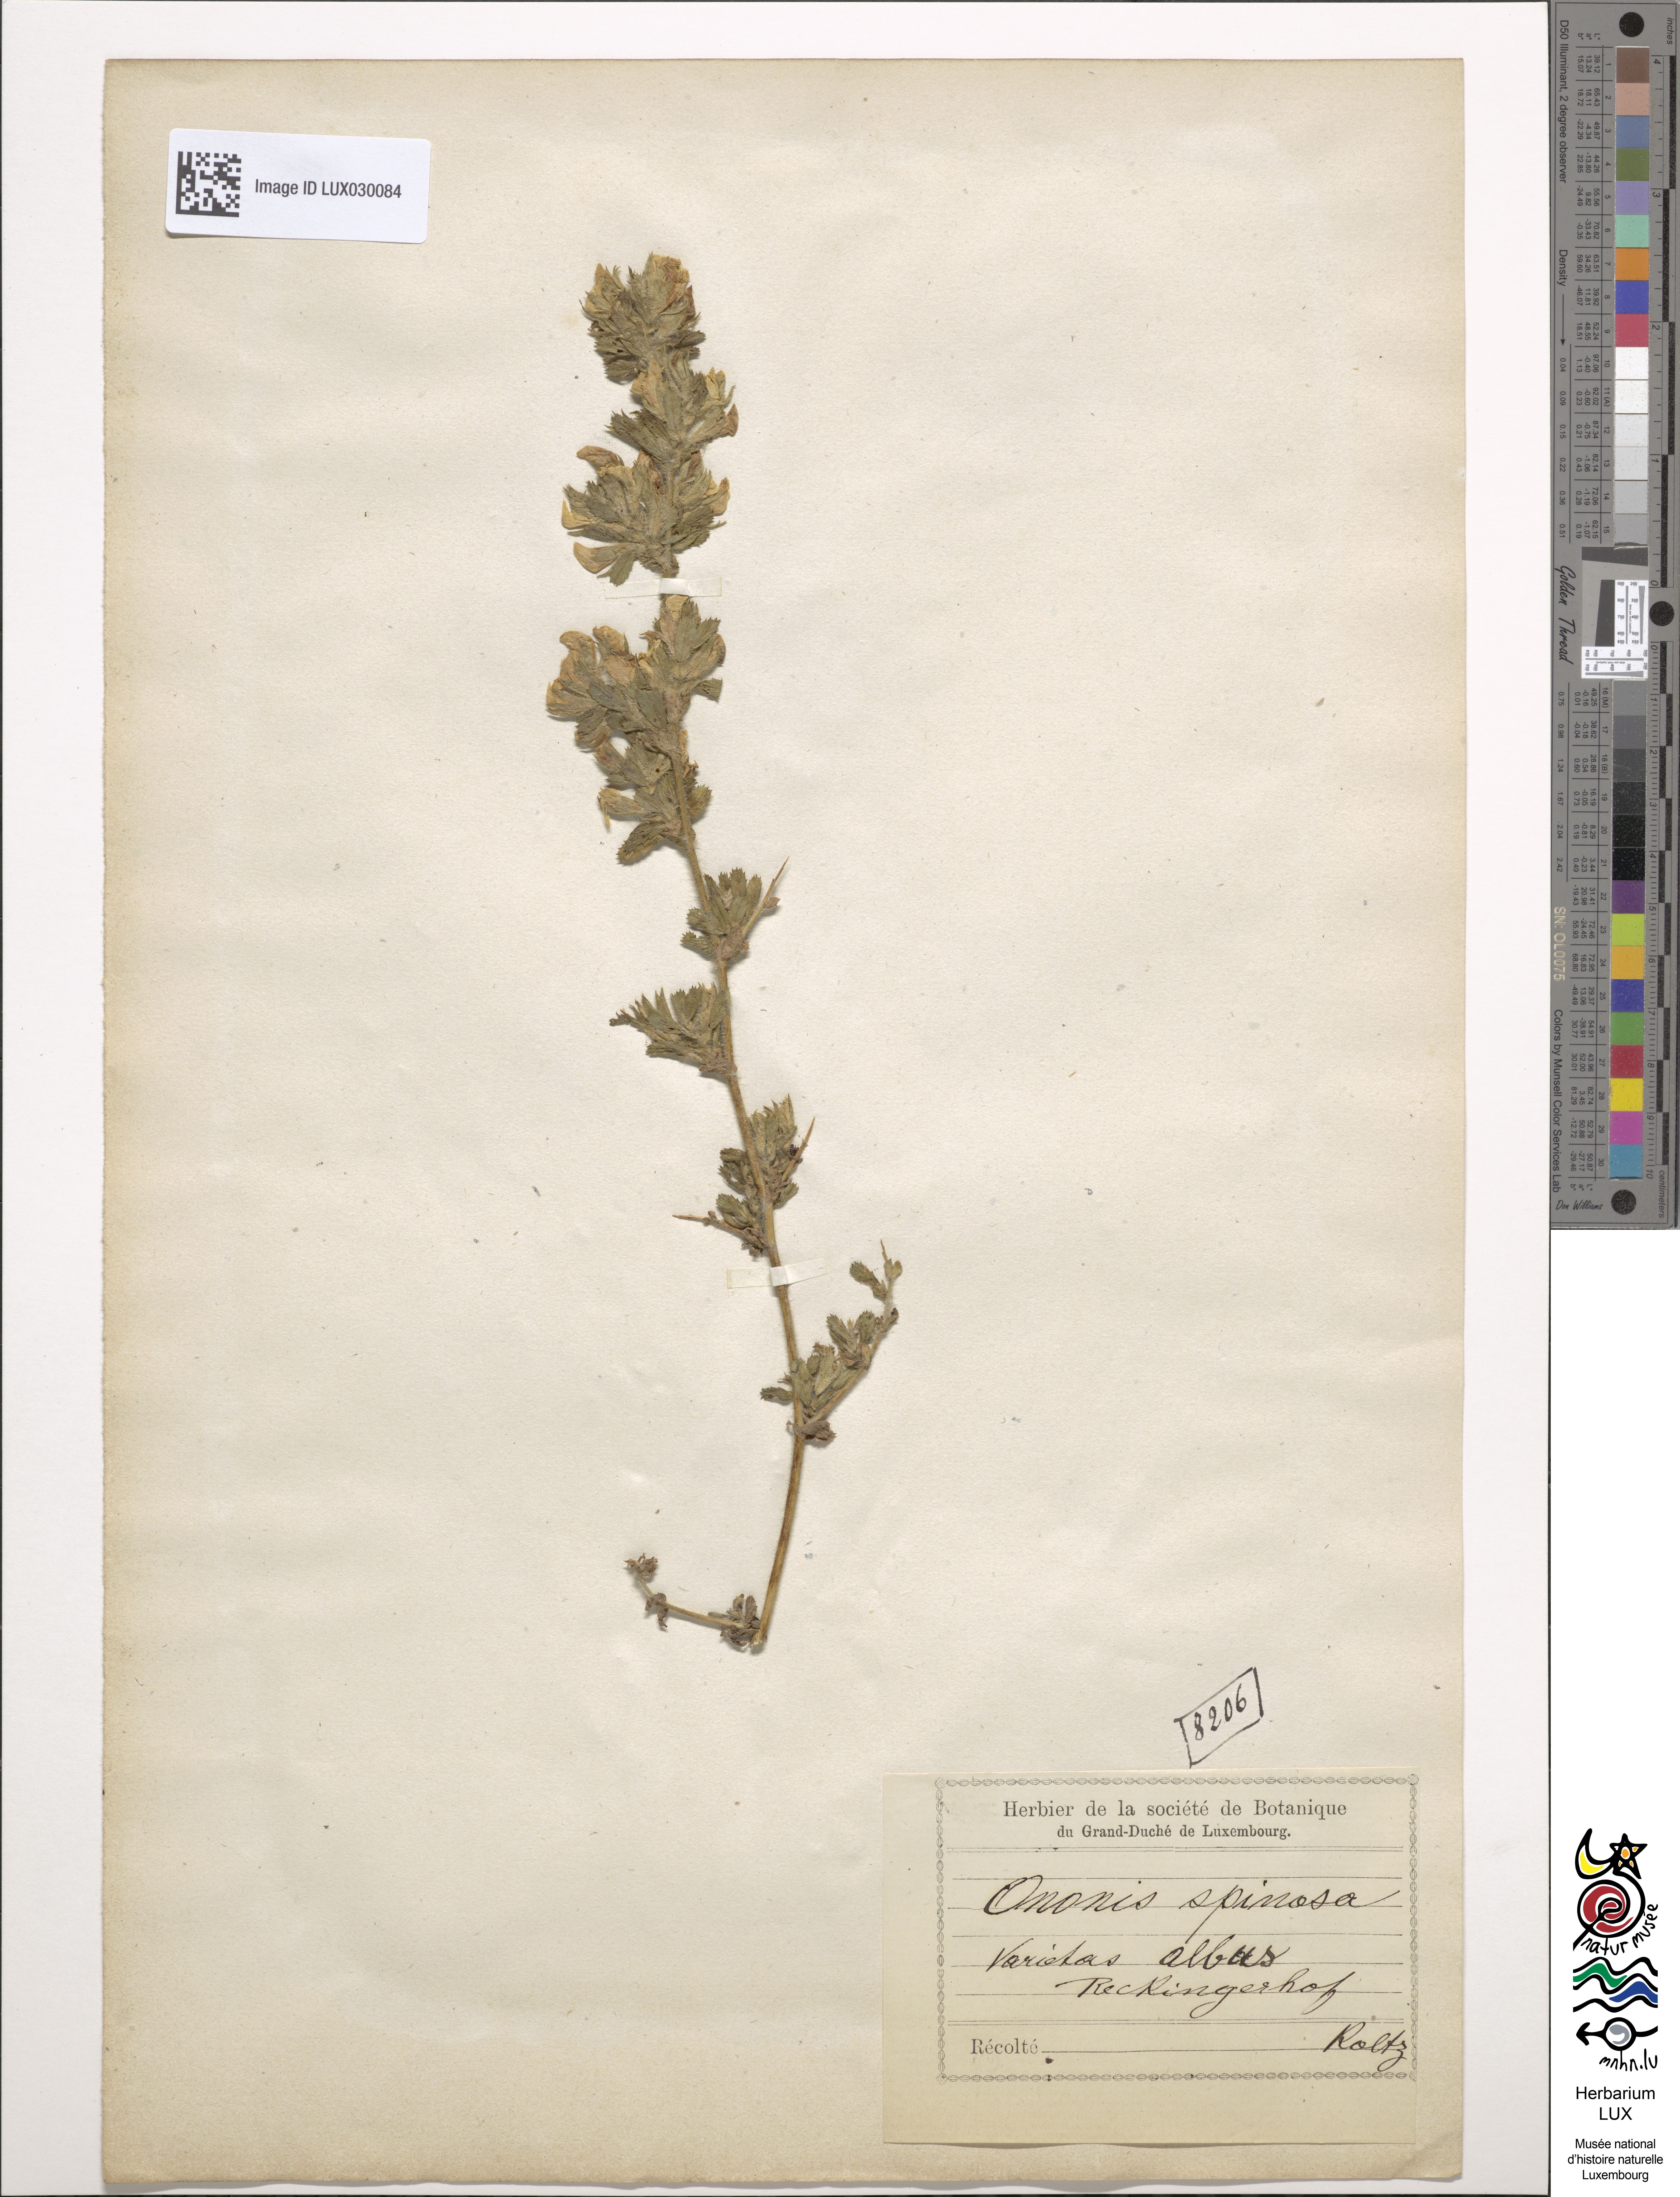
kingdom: Plantae
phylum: Tracheophyta
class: Magnoliopsida
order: Fabales
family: Fabaceae
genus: Ononis
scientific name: Ononis spinosa
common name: Spiny restharrow
